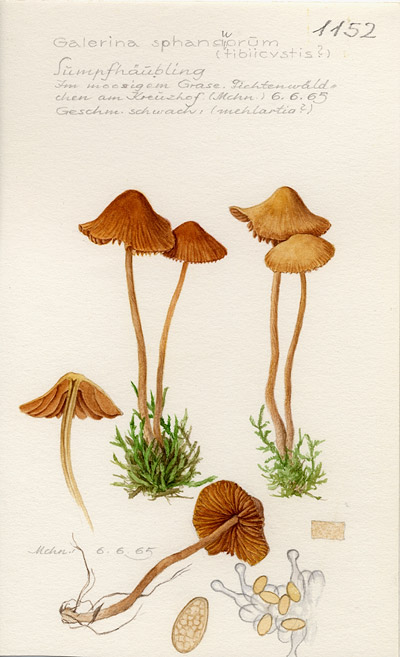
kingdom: Fungi
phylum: Basidiomycota
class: Agaricomycetes
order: Agaricales
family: Hymenogastraceae
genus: Galerina
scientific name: Galerina sphagnorum
